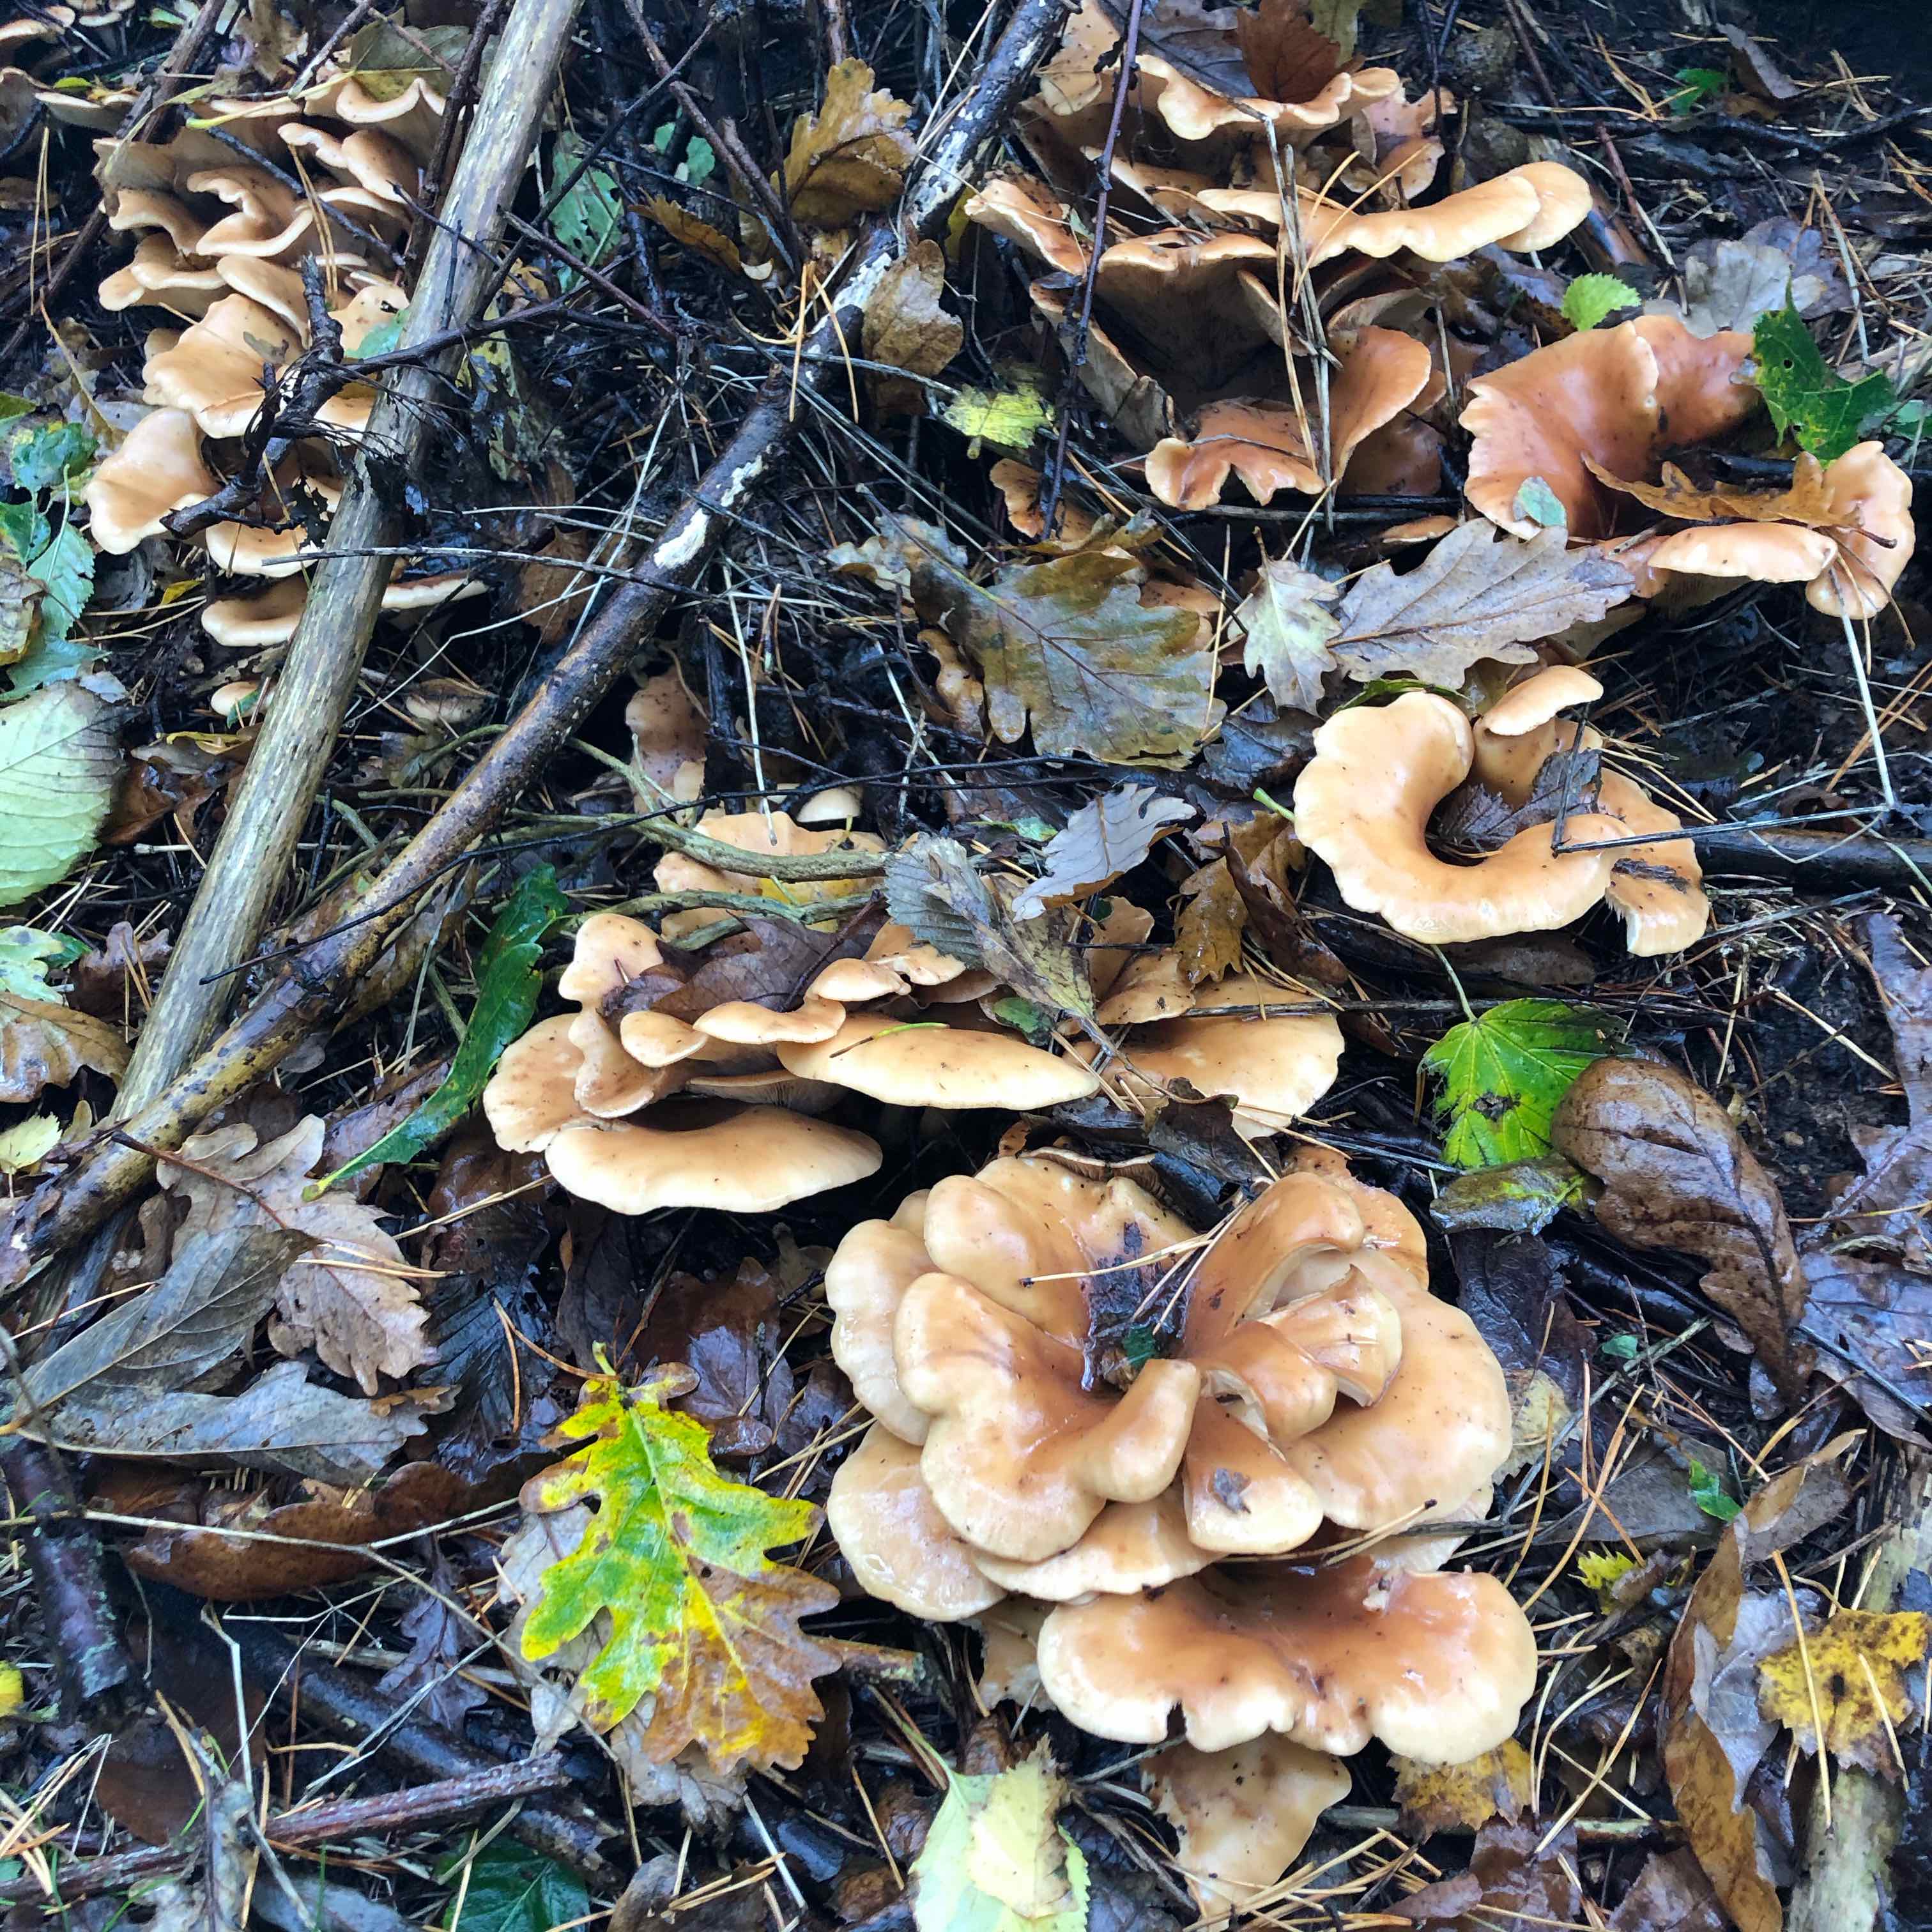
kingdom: Fungi
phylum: Basidiomycota
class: Agaricomycetes
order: Agaricales
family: Tricholomataceae
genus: Paralepista
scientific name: Paralepista flaccida
